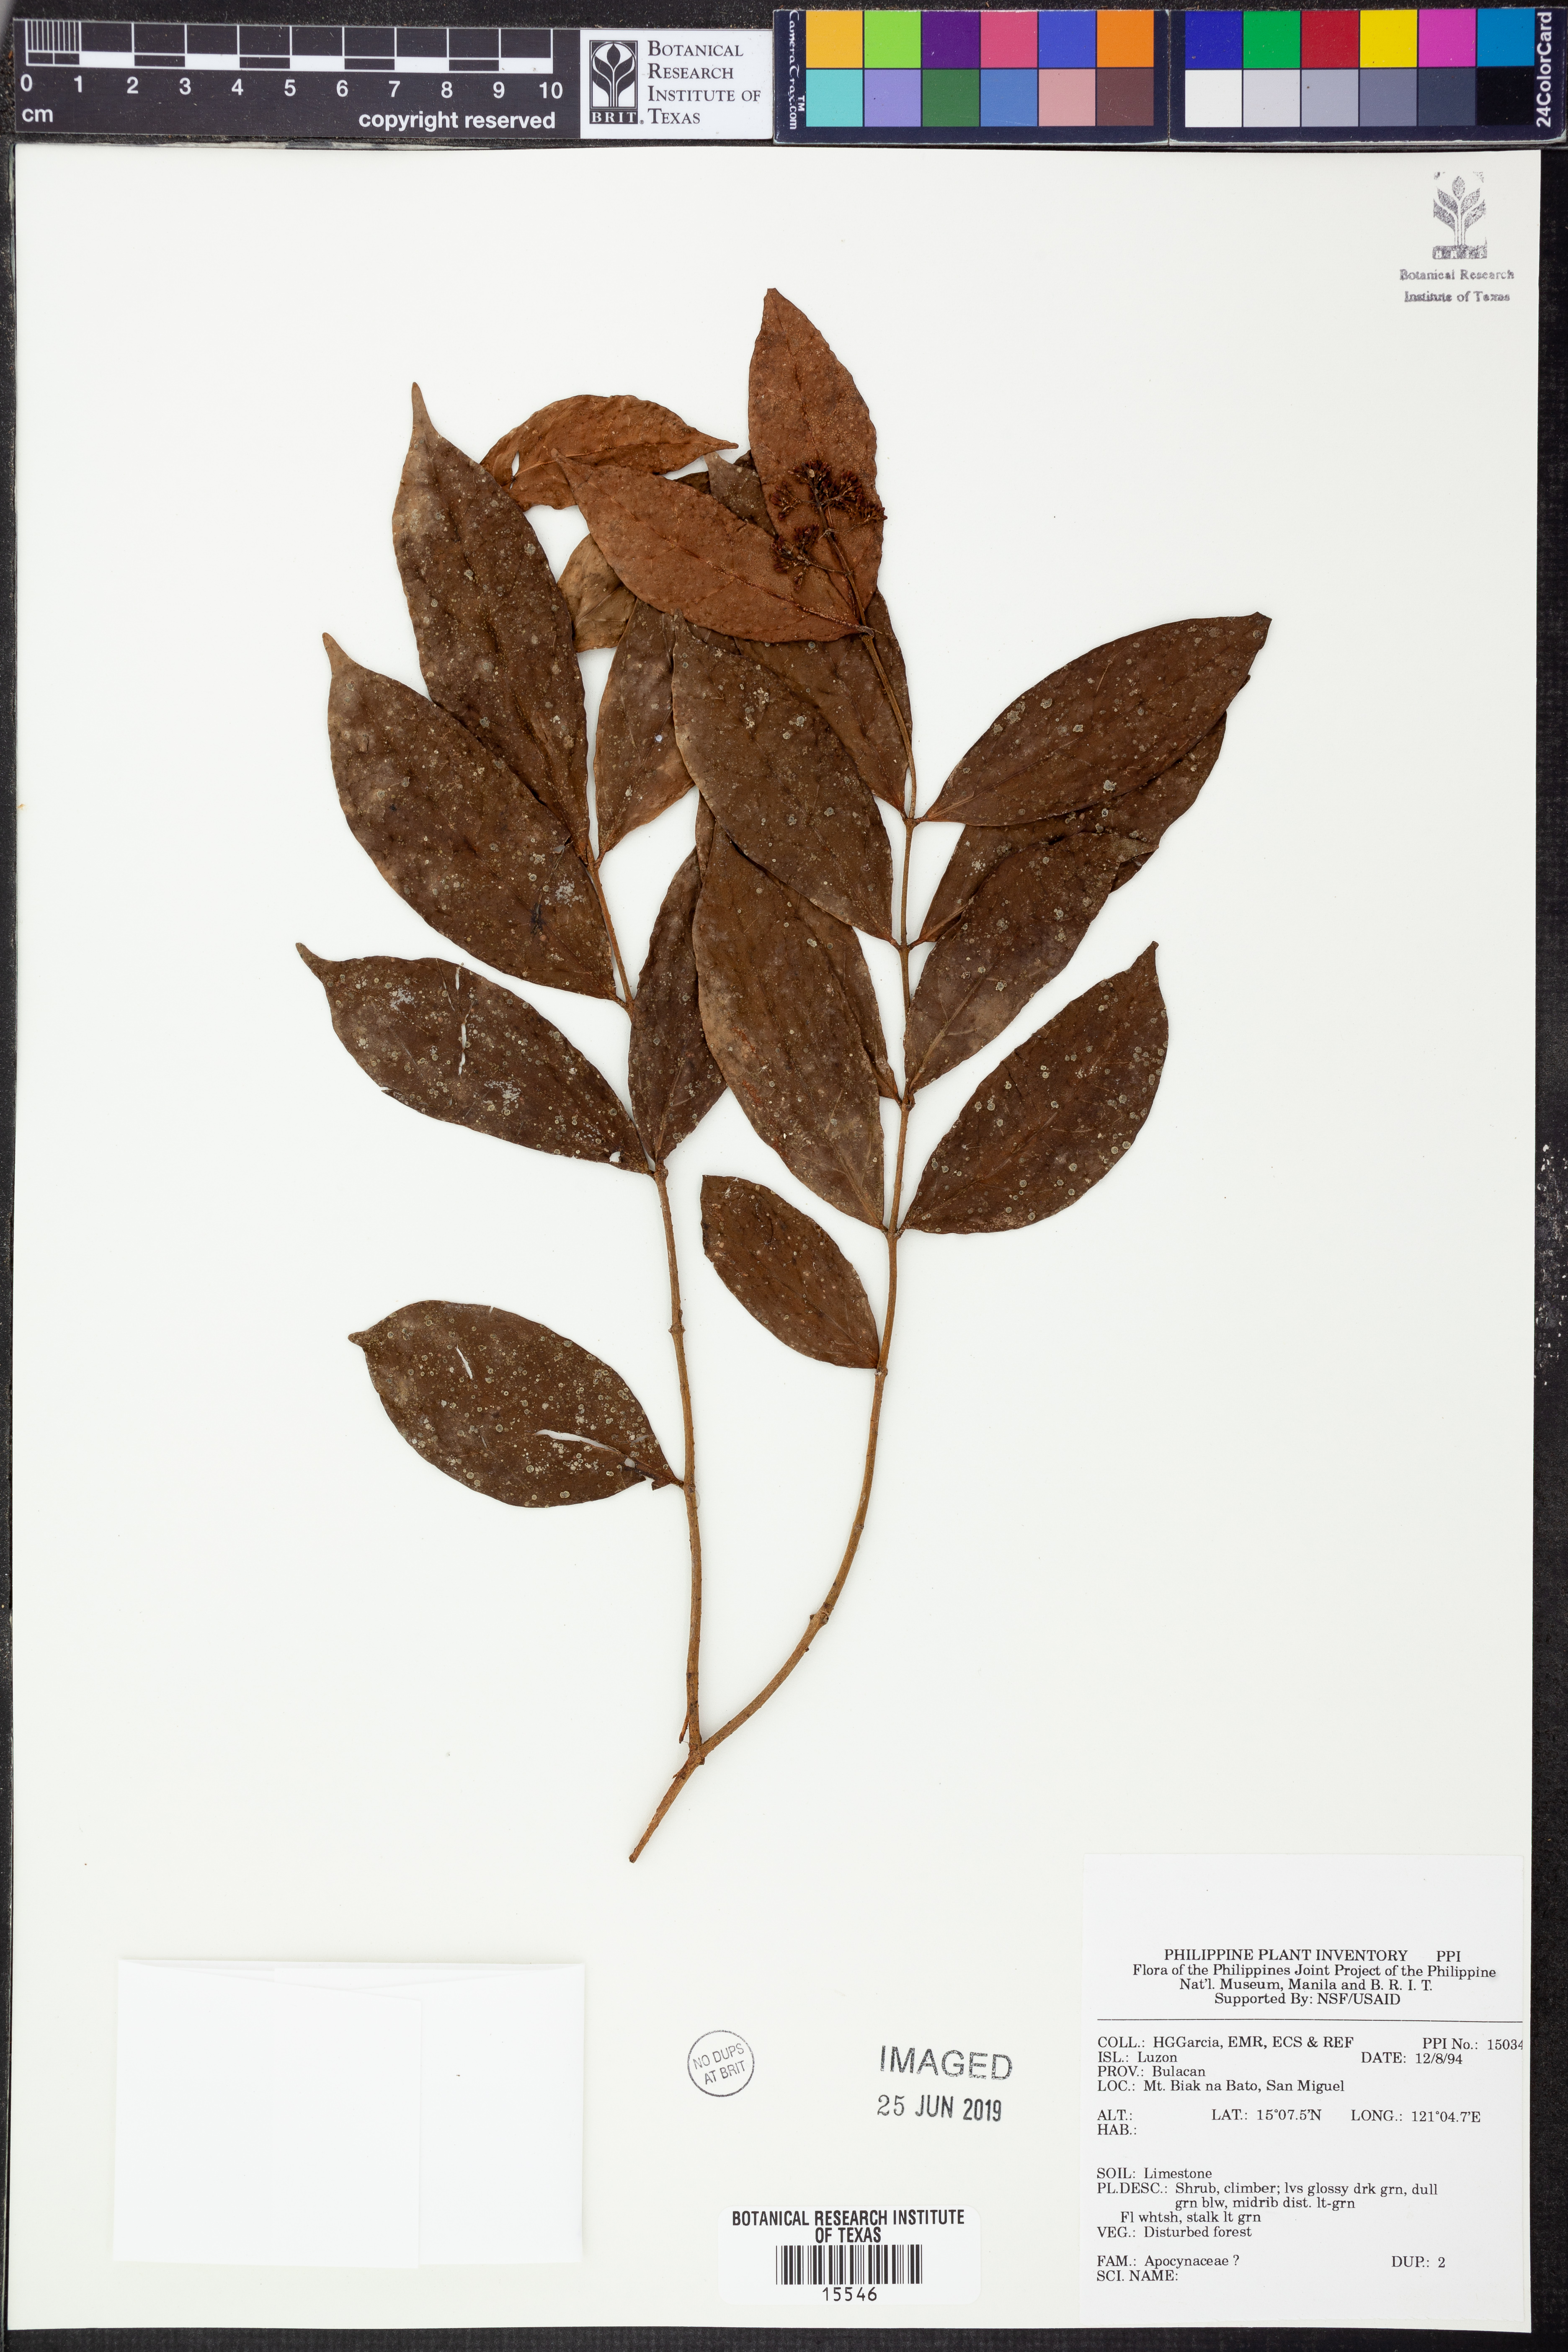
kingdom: Plantae
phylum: Tracheophyta
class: Magnoliopsida
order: Gentianales
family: Apocynaceae
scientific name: Apocynaceae
